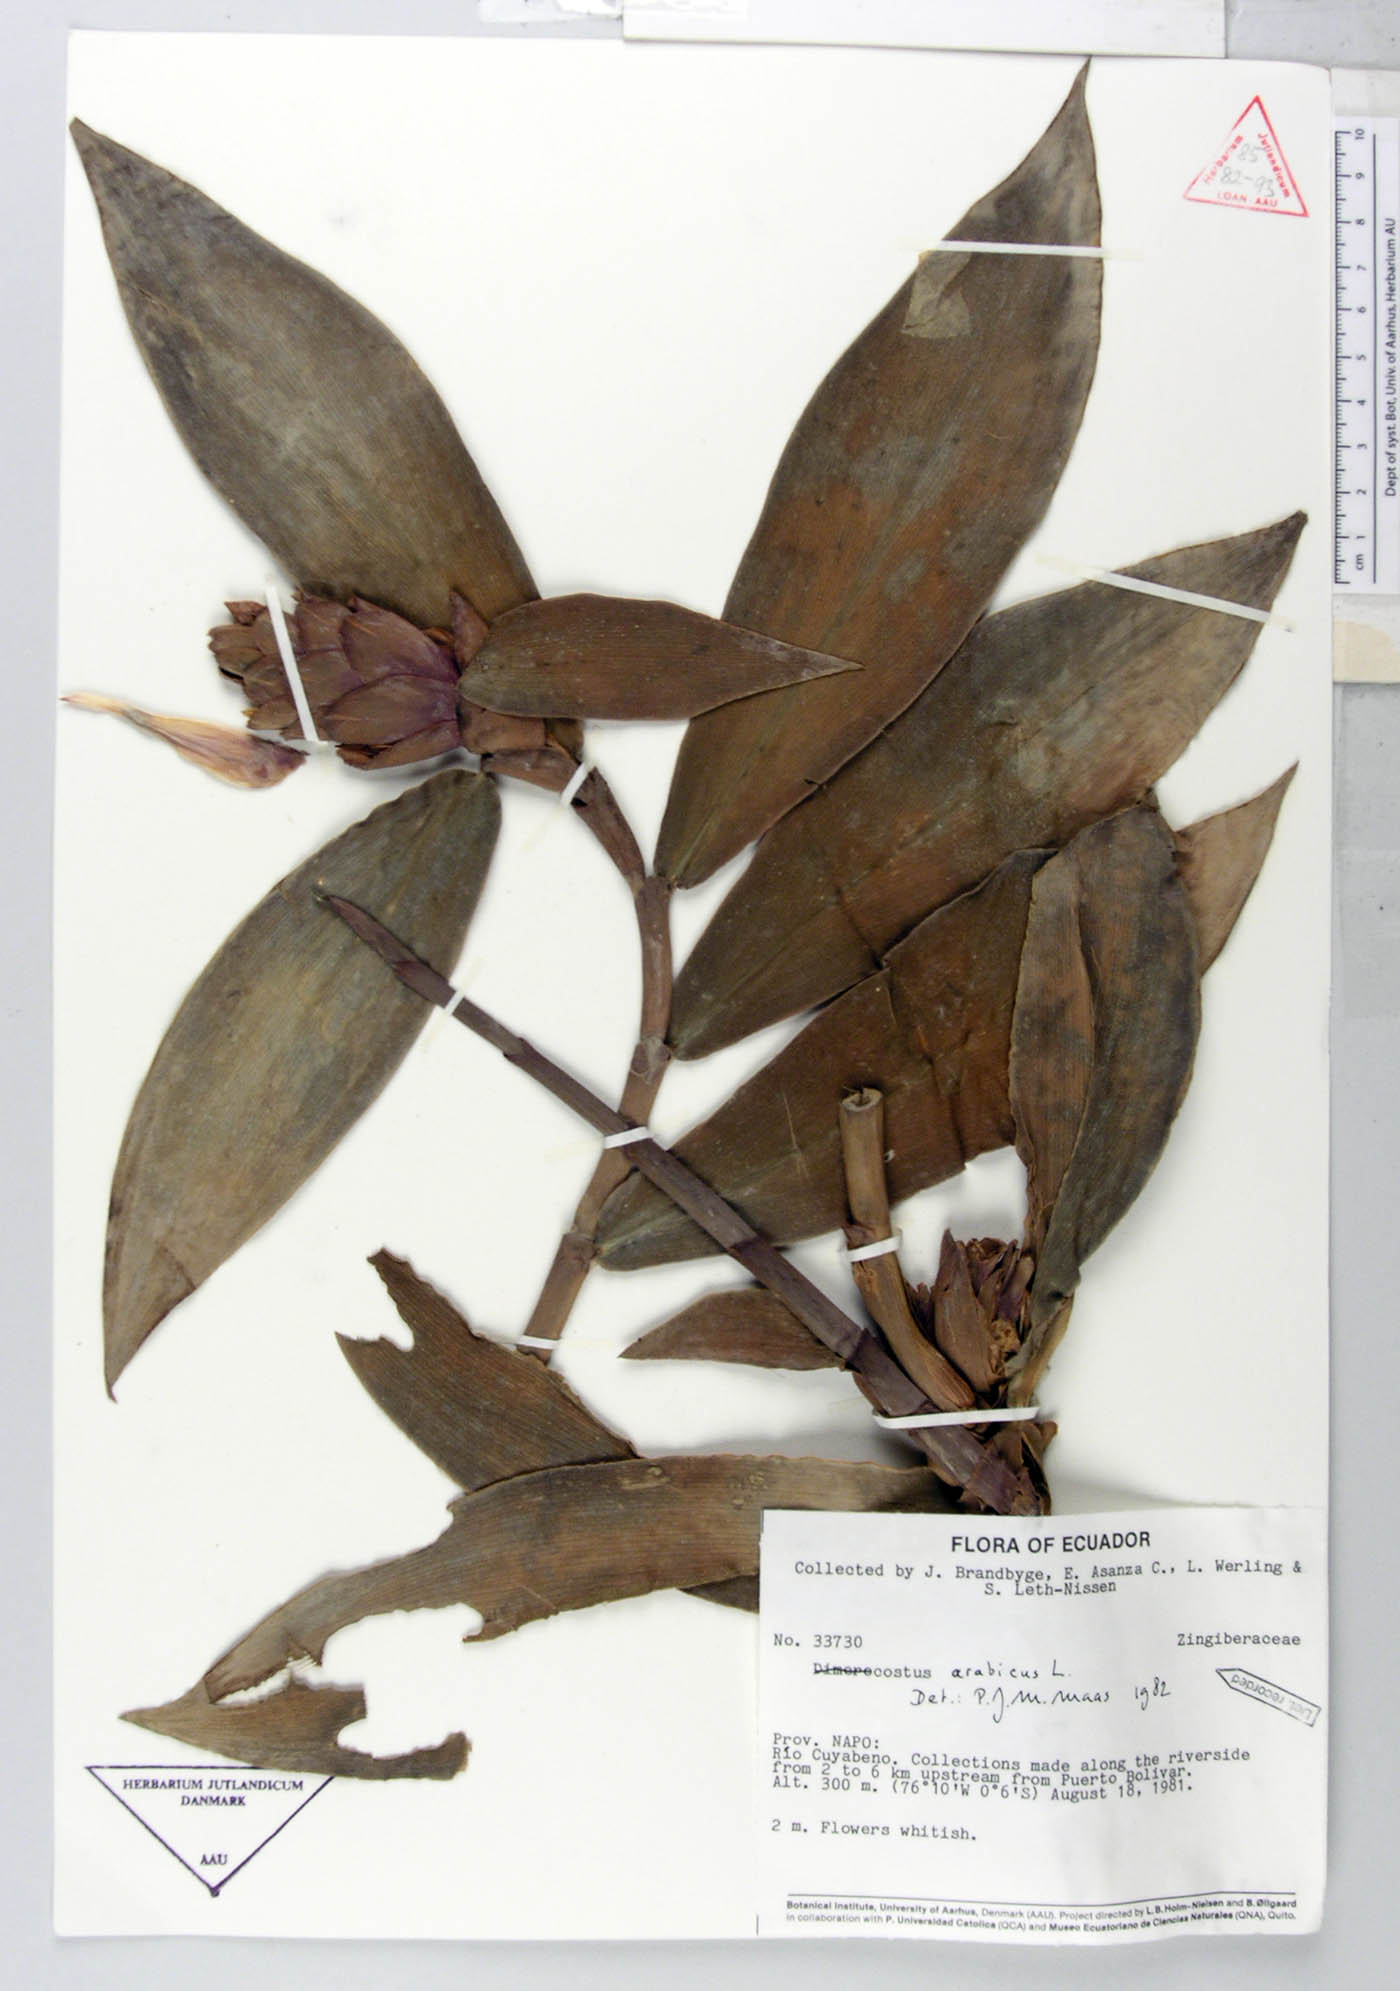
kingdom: Plantae
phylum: Tracheophyta
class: Liliopsida
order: Zingiberales
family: Costaceae
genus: Costus
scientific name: Costus arabicus
